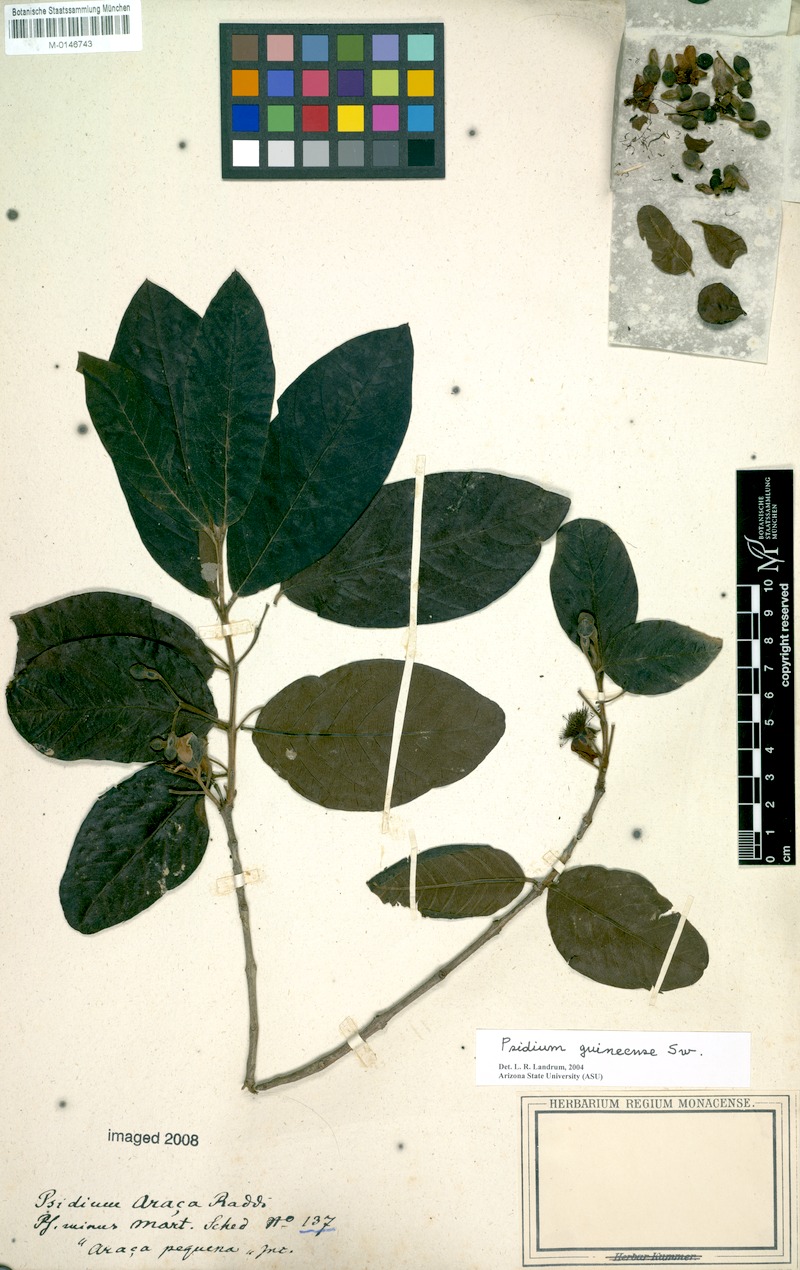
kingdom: Plantae
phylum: Tracheophyta
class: Magnoliopsida
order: Myrtales
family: Myrtaceae
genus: Psidium
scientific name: Psidium guineense
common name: Brazilian guava
